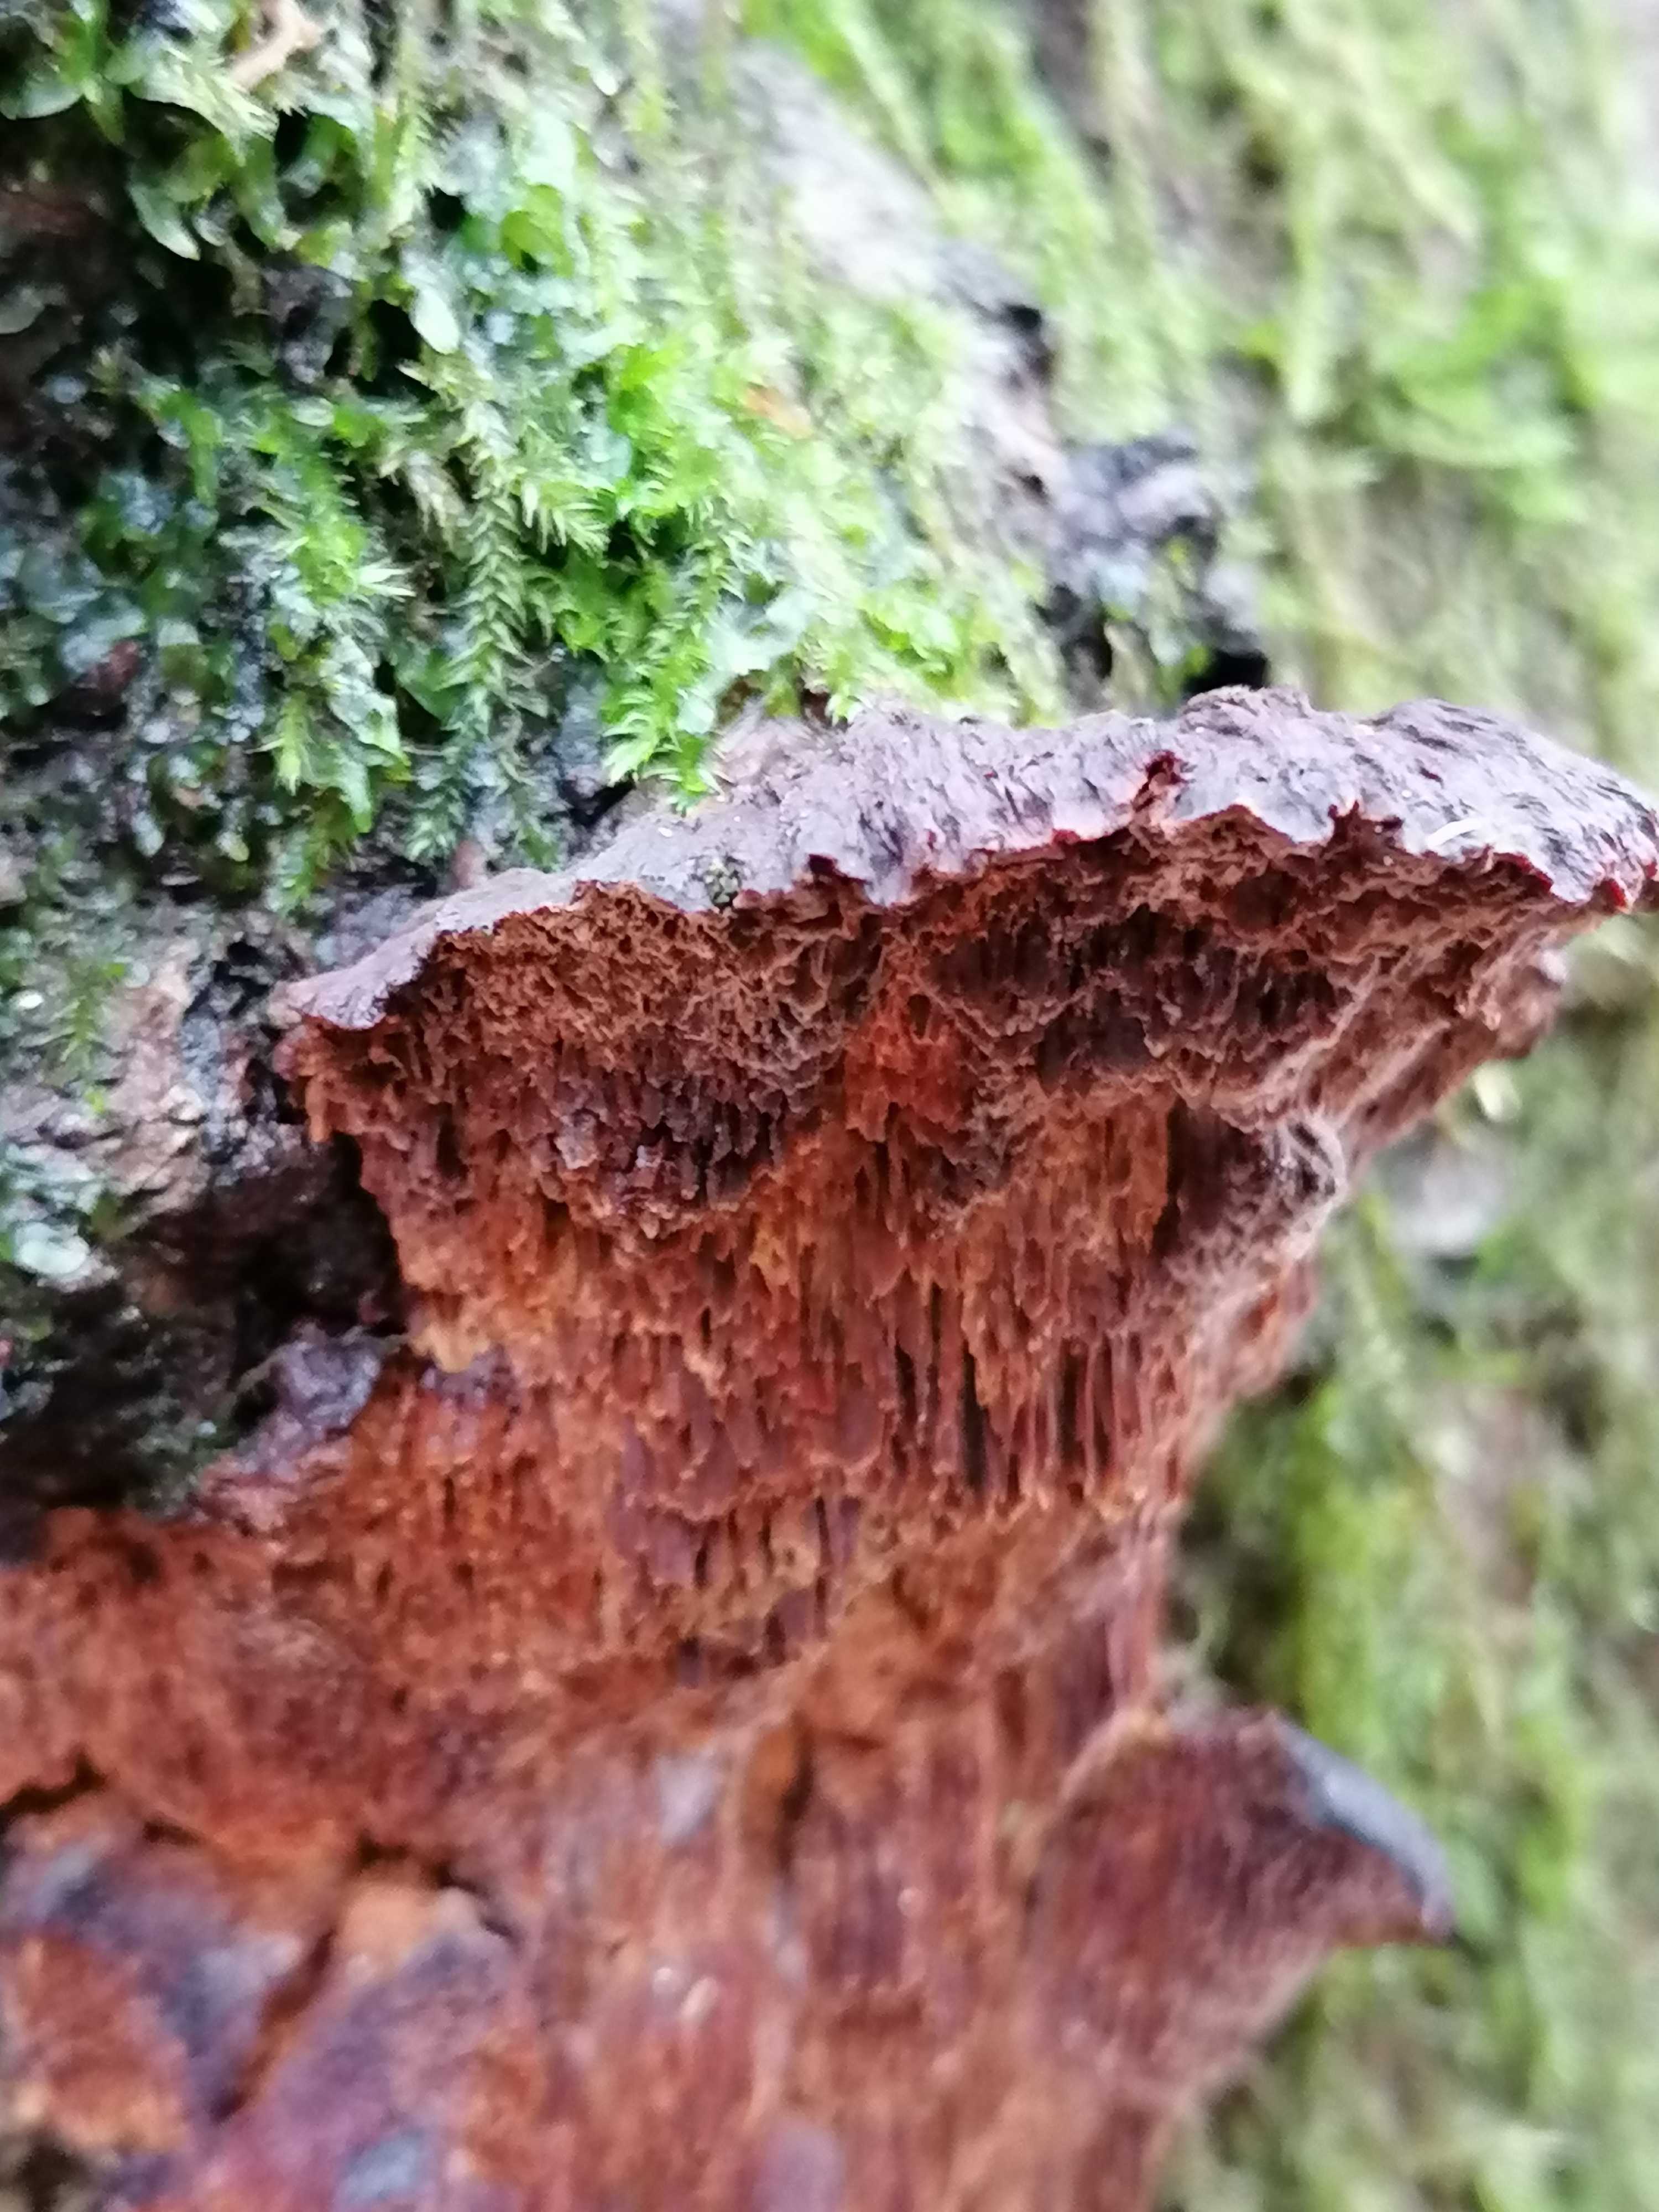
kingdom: Fungi
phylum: Basidiomycota
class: Agaricomycetes
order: Hymenochaetales
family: Hymenochaetaceae
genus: Xanthoporia
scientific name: Xanthoporia radiata
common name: elle-spejlporesvamp
